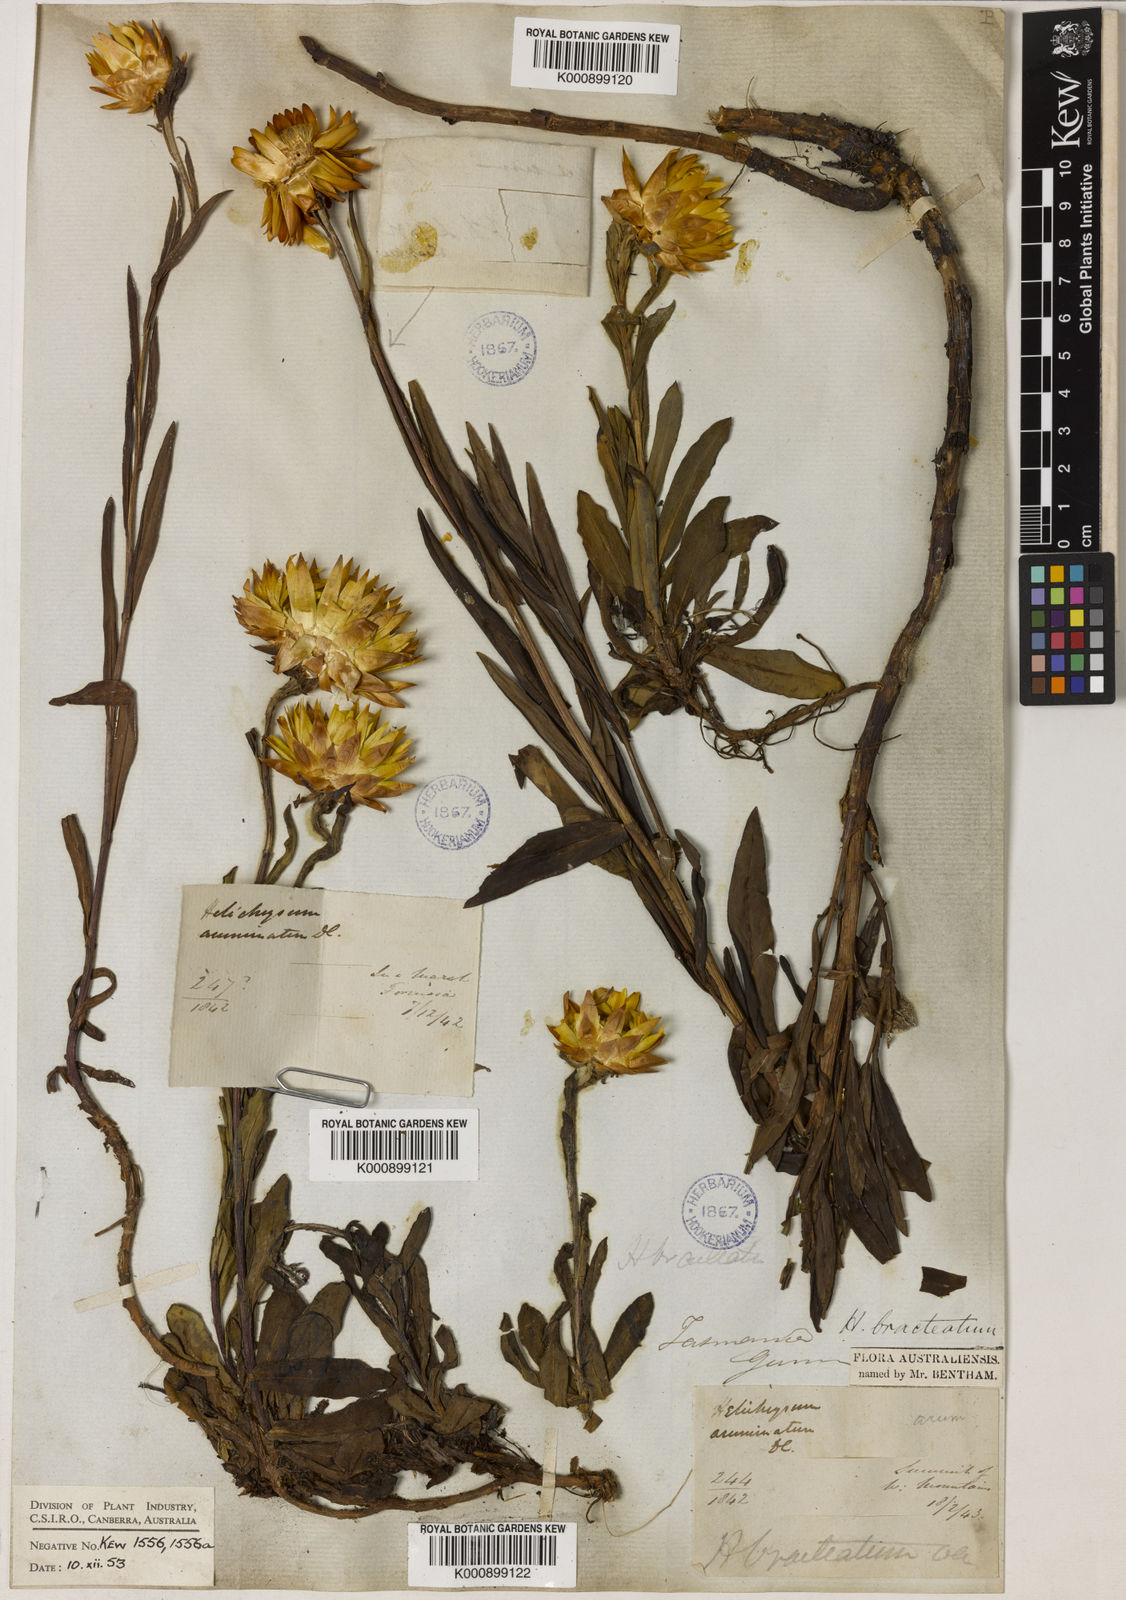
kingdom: Plantae
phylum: Tracheophyta
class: Magnoliopsida
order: Asterales
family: Asteraceae
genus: Xerochrysum
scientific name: Xerochrysum bracteatum
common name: Bracted strawflower
